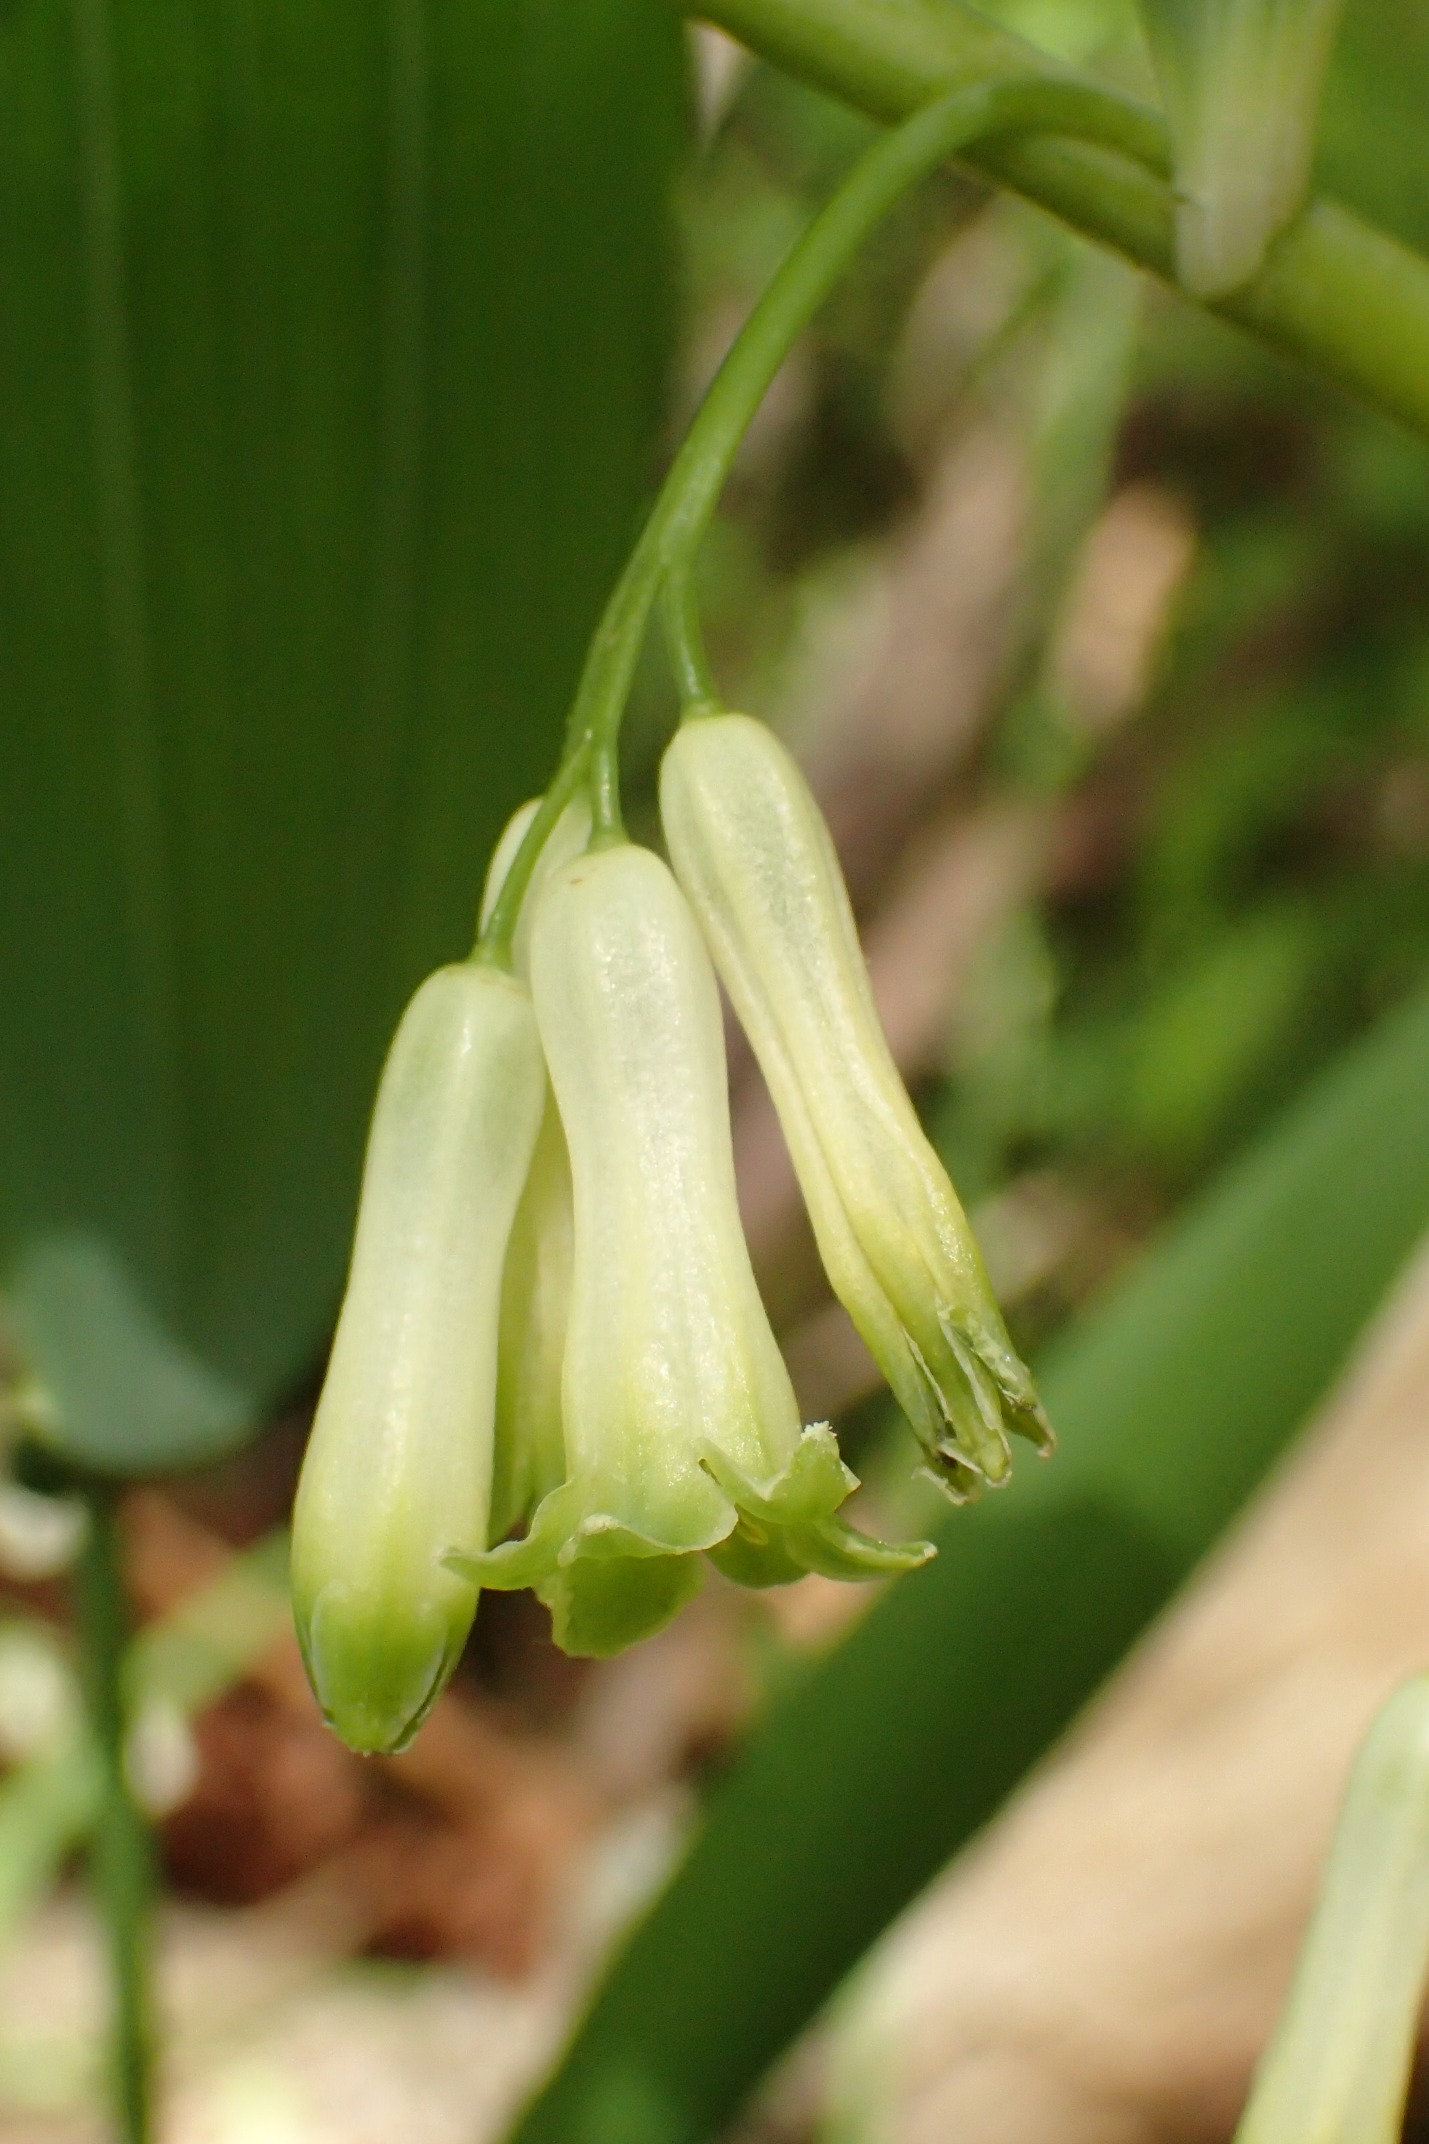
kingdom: Plantae
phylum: Tracheophyta
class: Liliopsida
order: Asparagales
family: Asparagaceae
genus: Polygonatum
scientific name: Polygonatum multiflorum
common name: Stor konval
